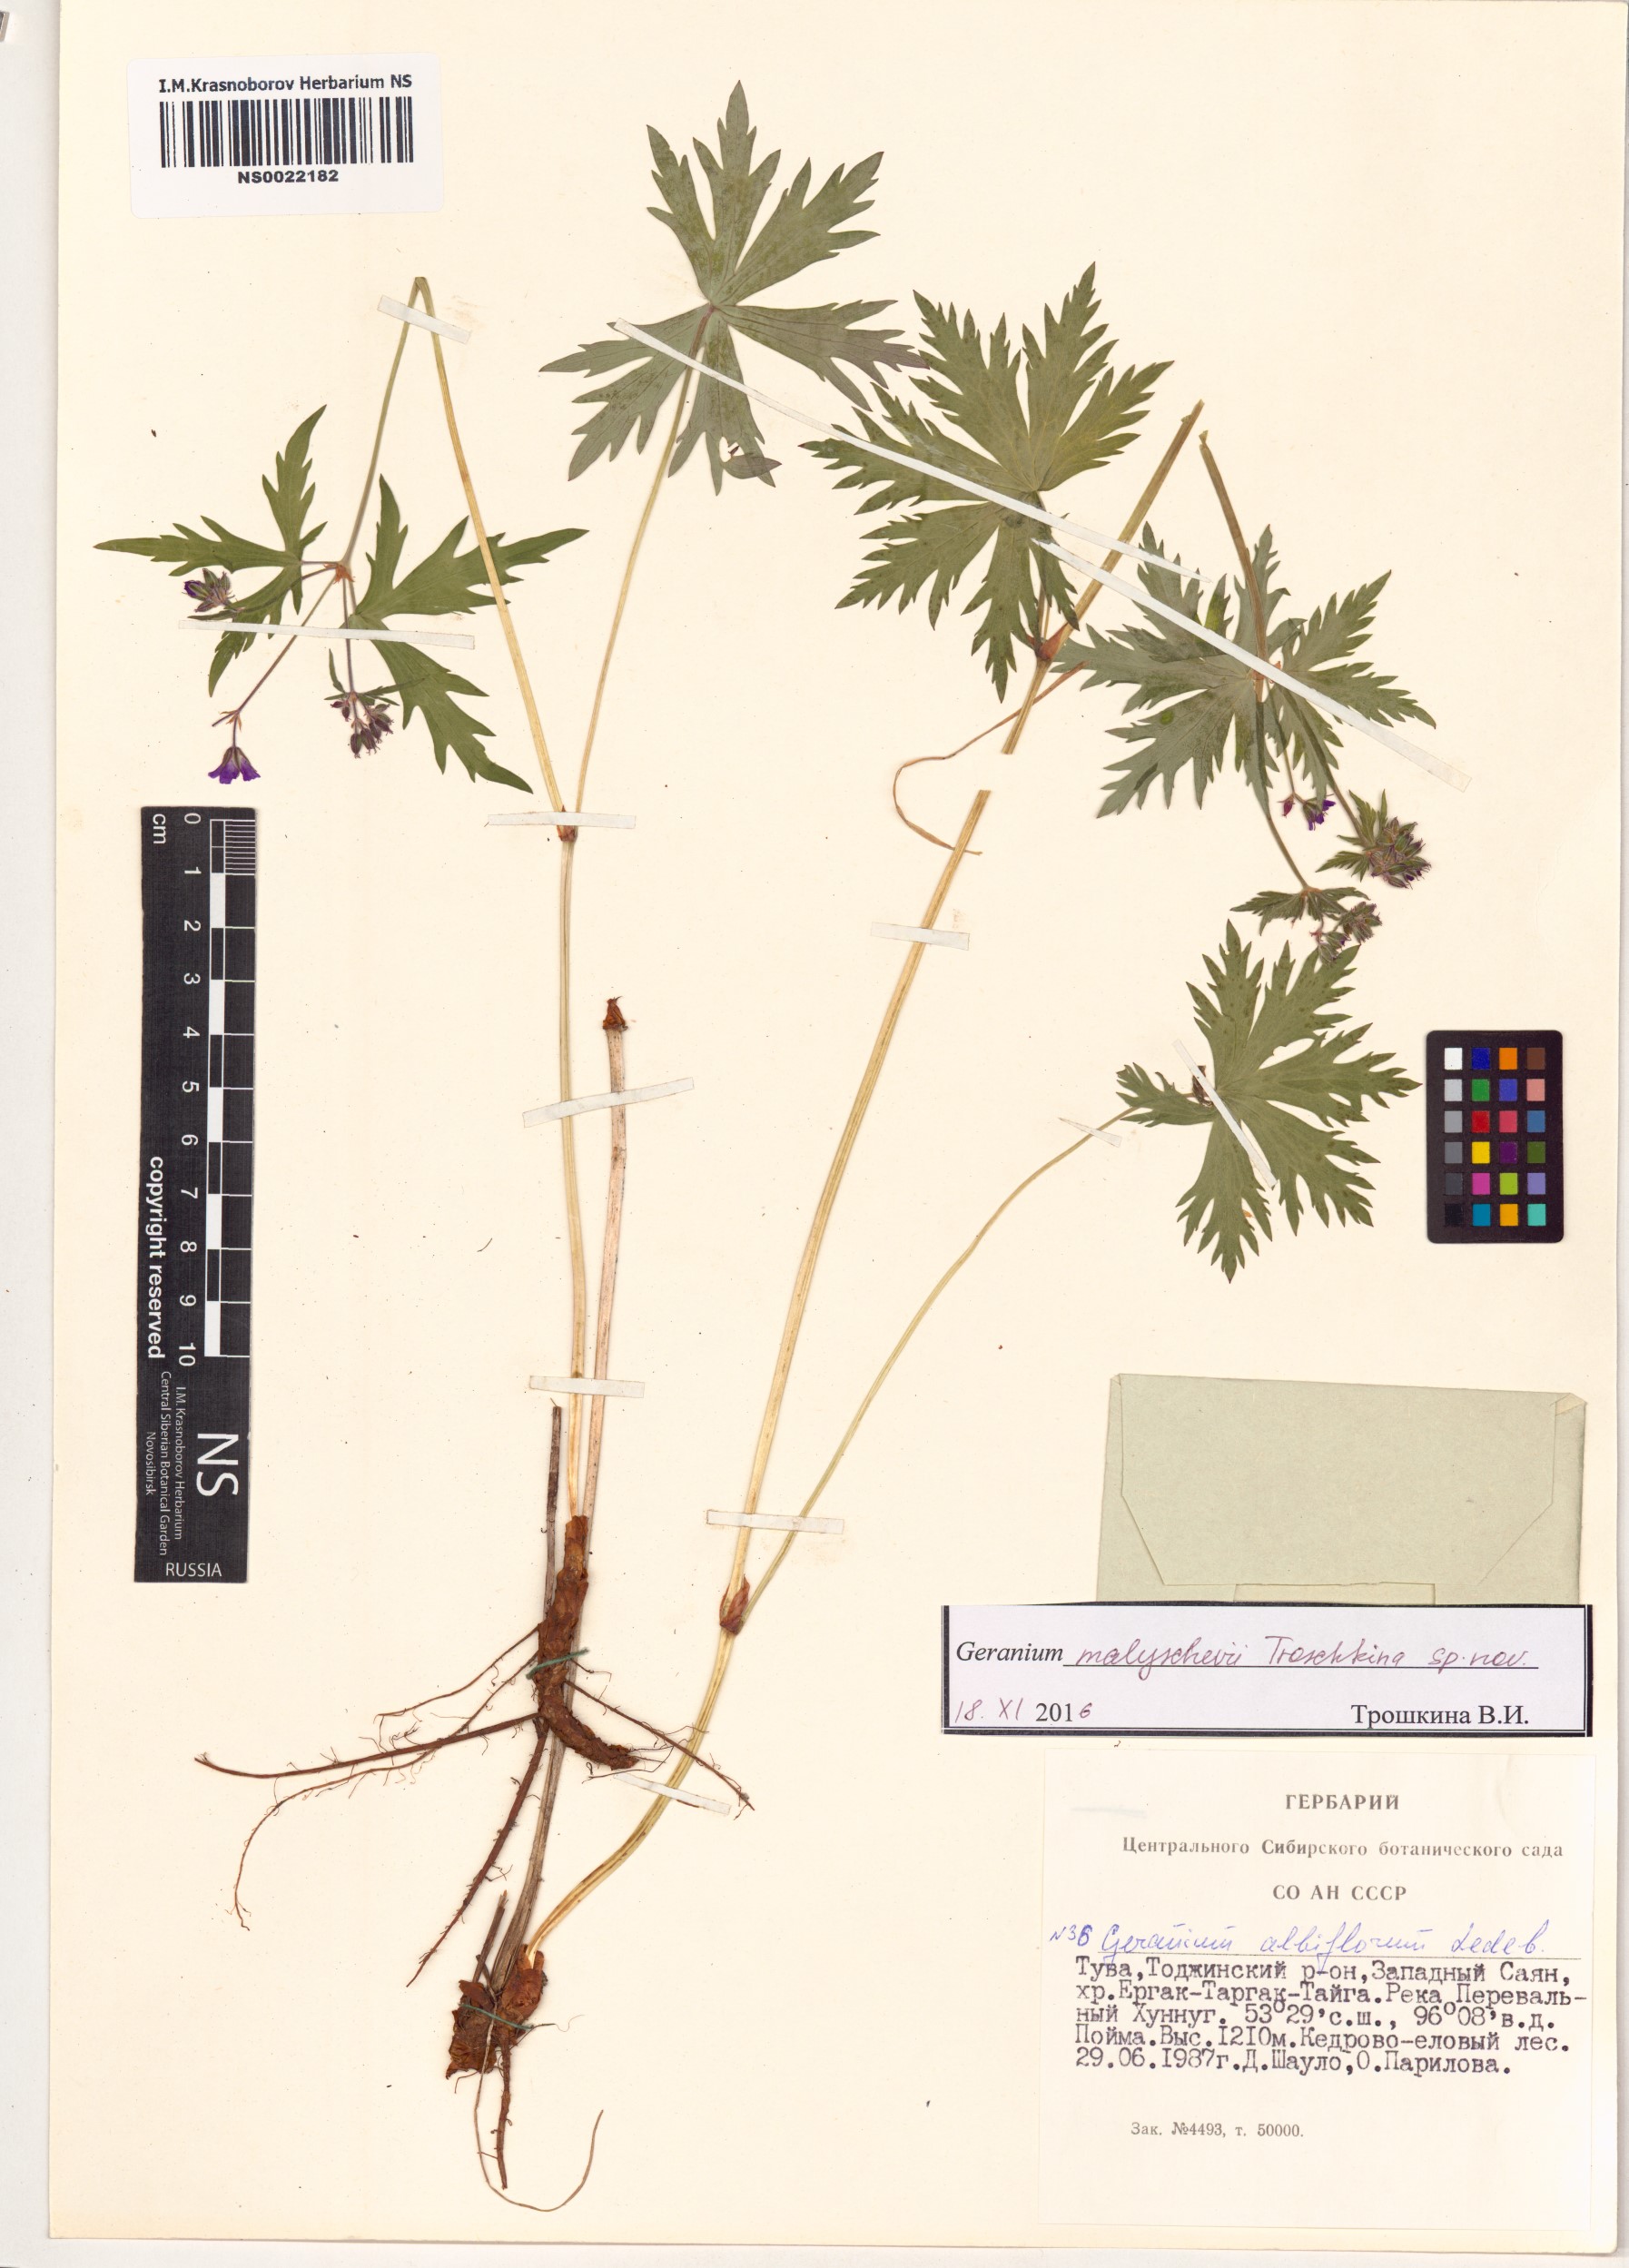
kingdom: Plantae
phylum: Tracheophyta
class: Magnoliopsida
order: Geraniales
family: Geraniaceae
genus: Geranium
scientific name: Geranium malyschevii
